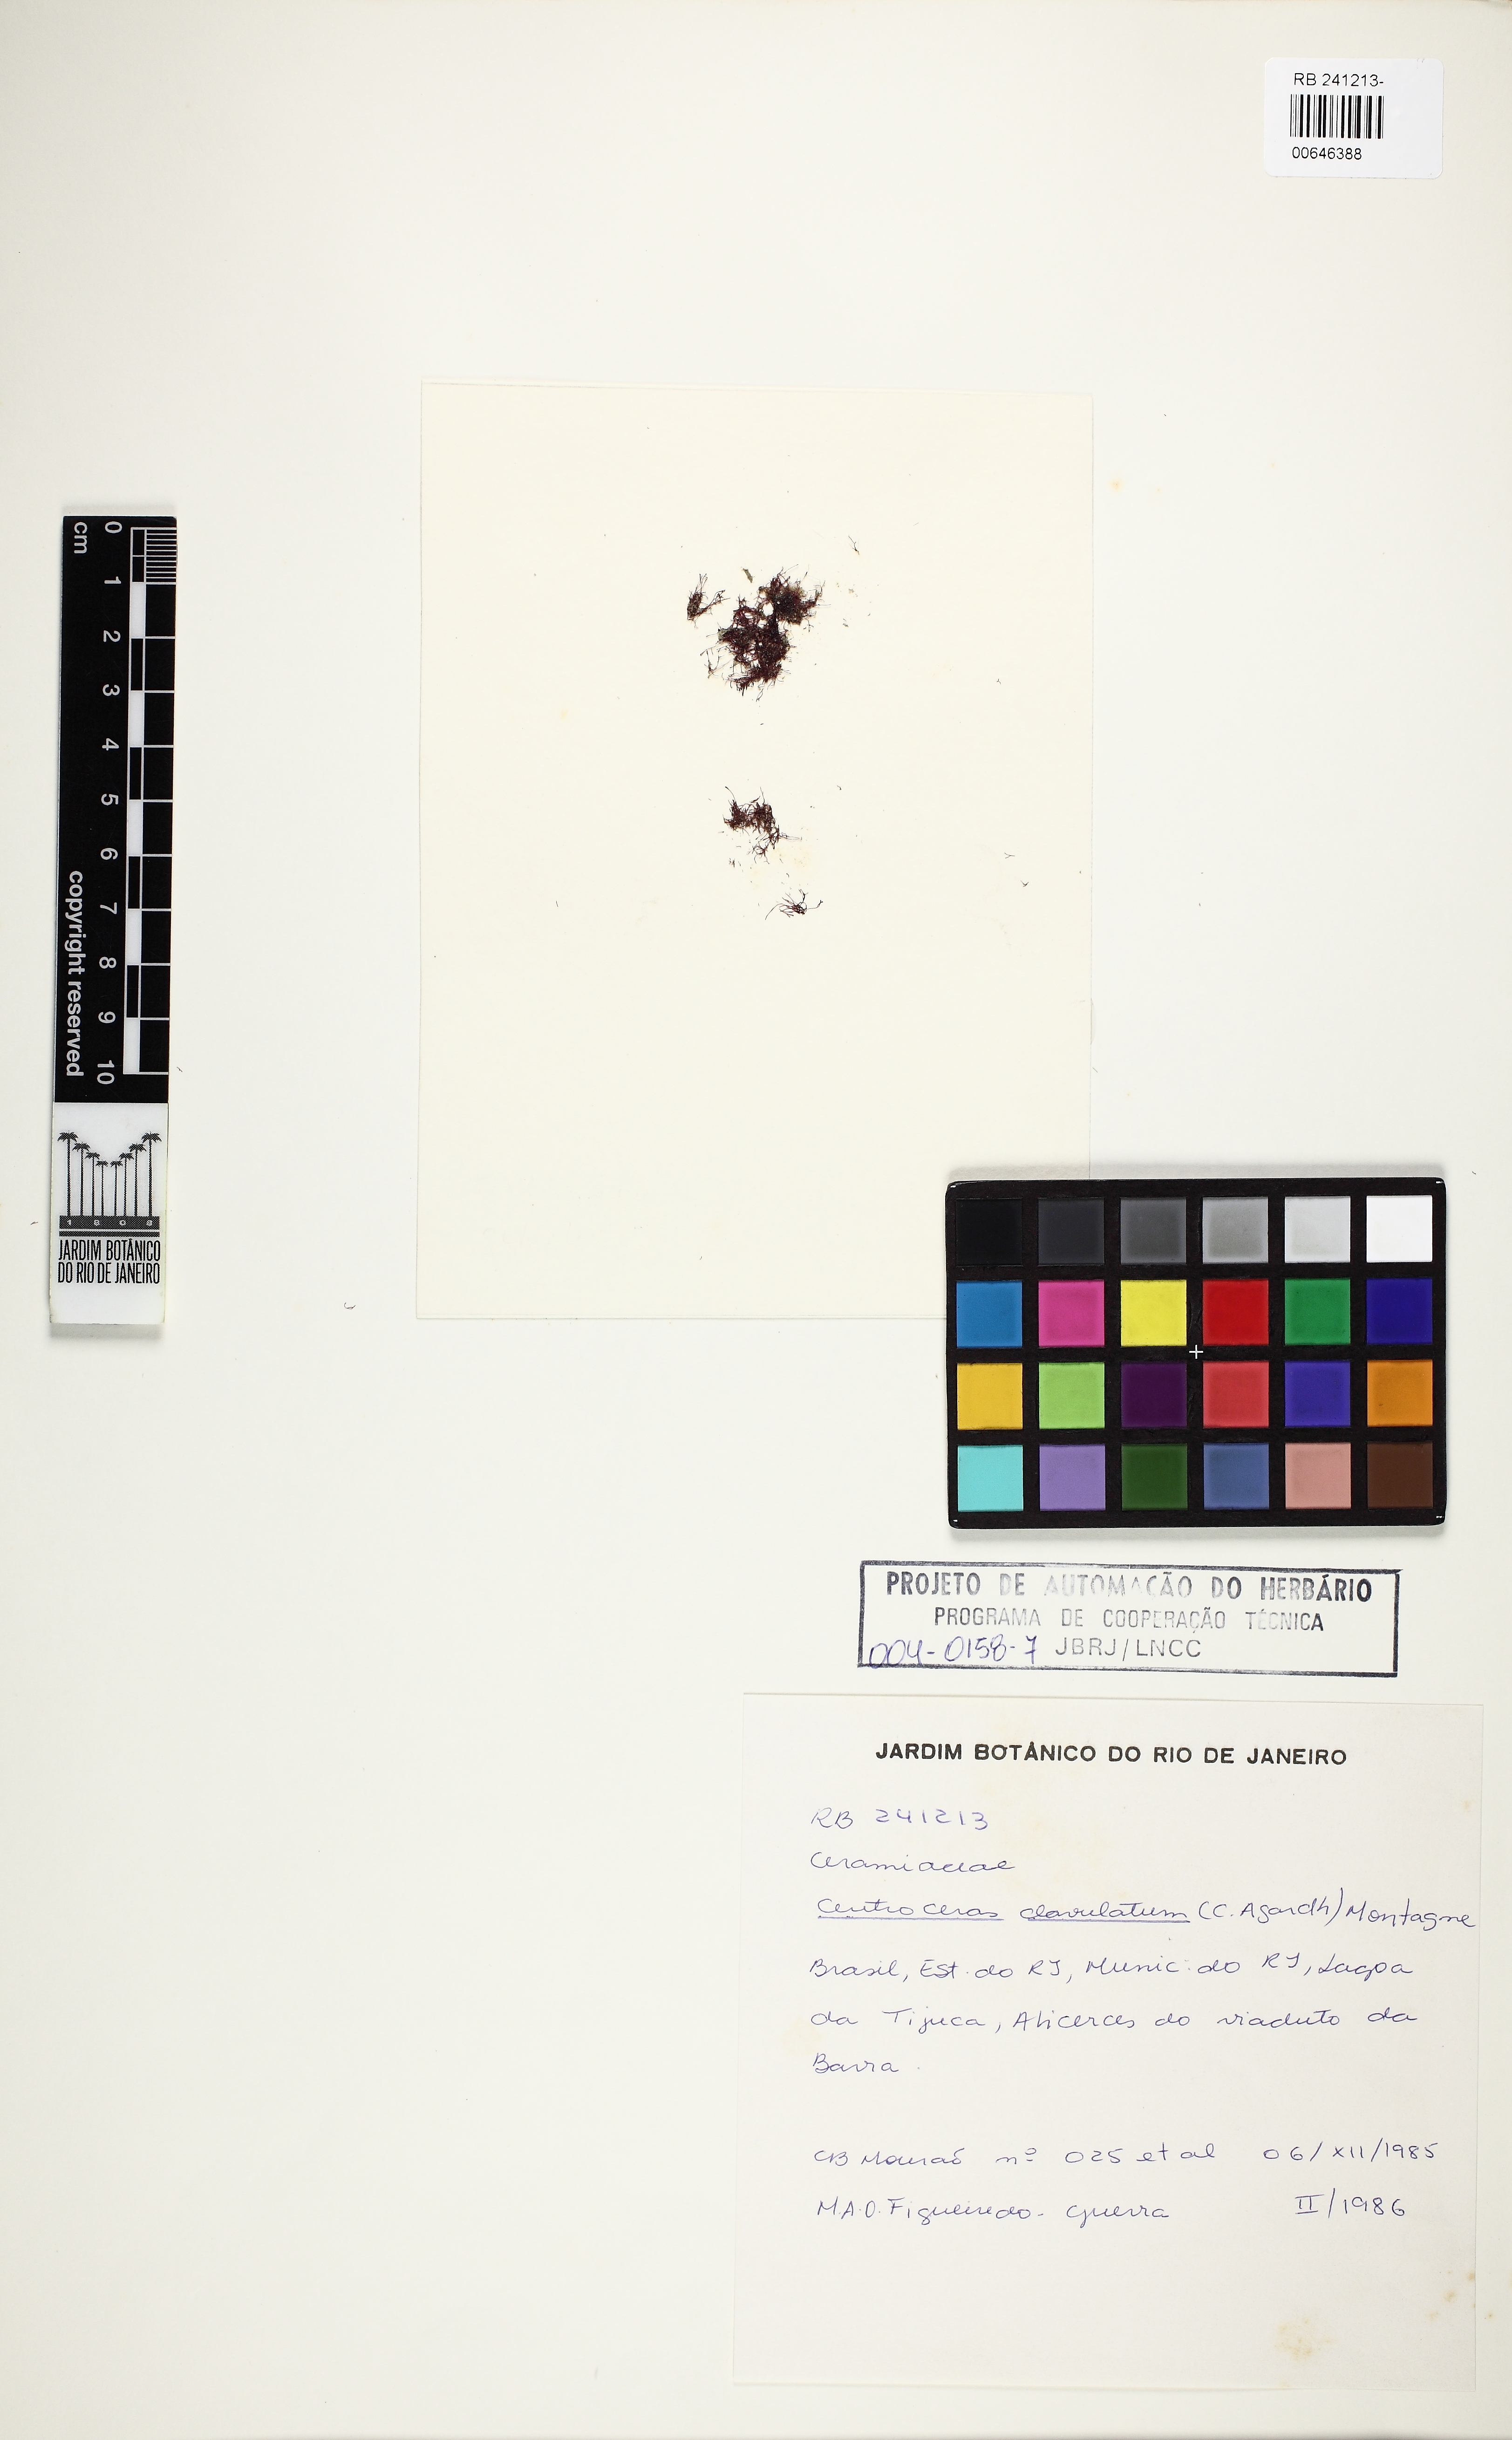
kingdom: Plantae
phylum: Rhodophyta
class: Florideophyceae
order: Ceramiales
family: Ceramiaceae
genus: Centroceras
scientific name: Centroceras clavulatum
